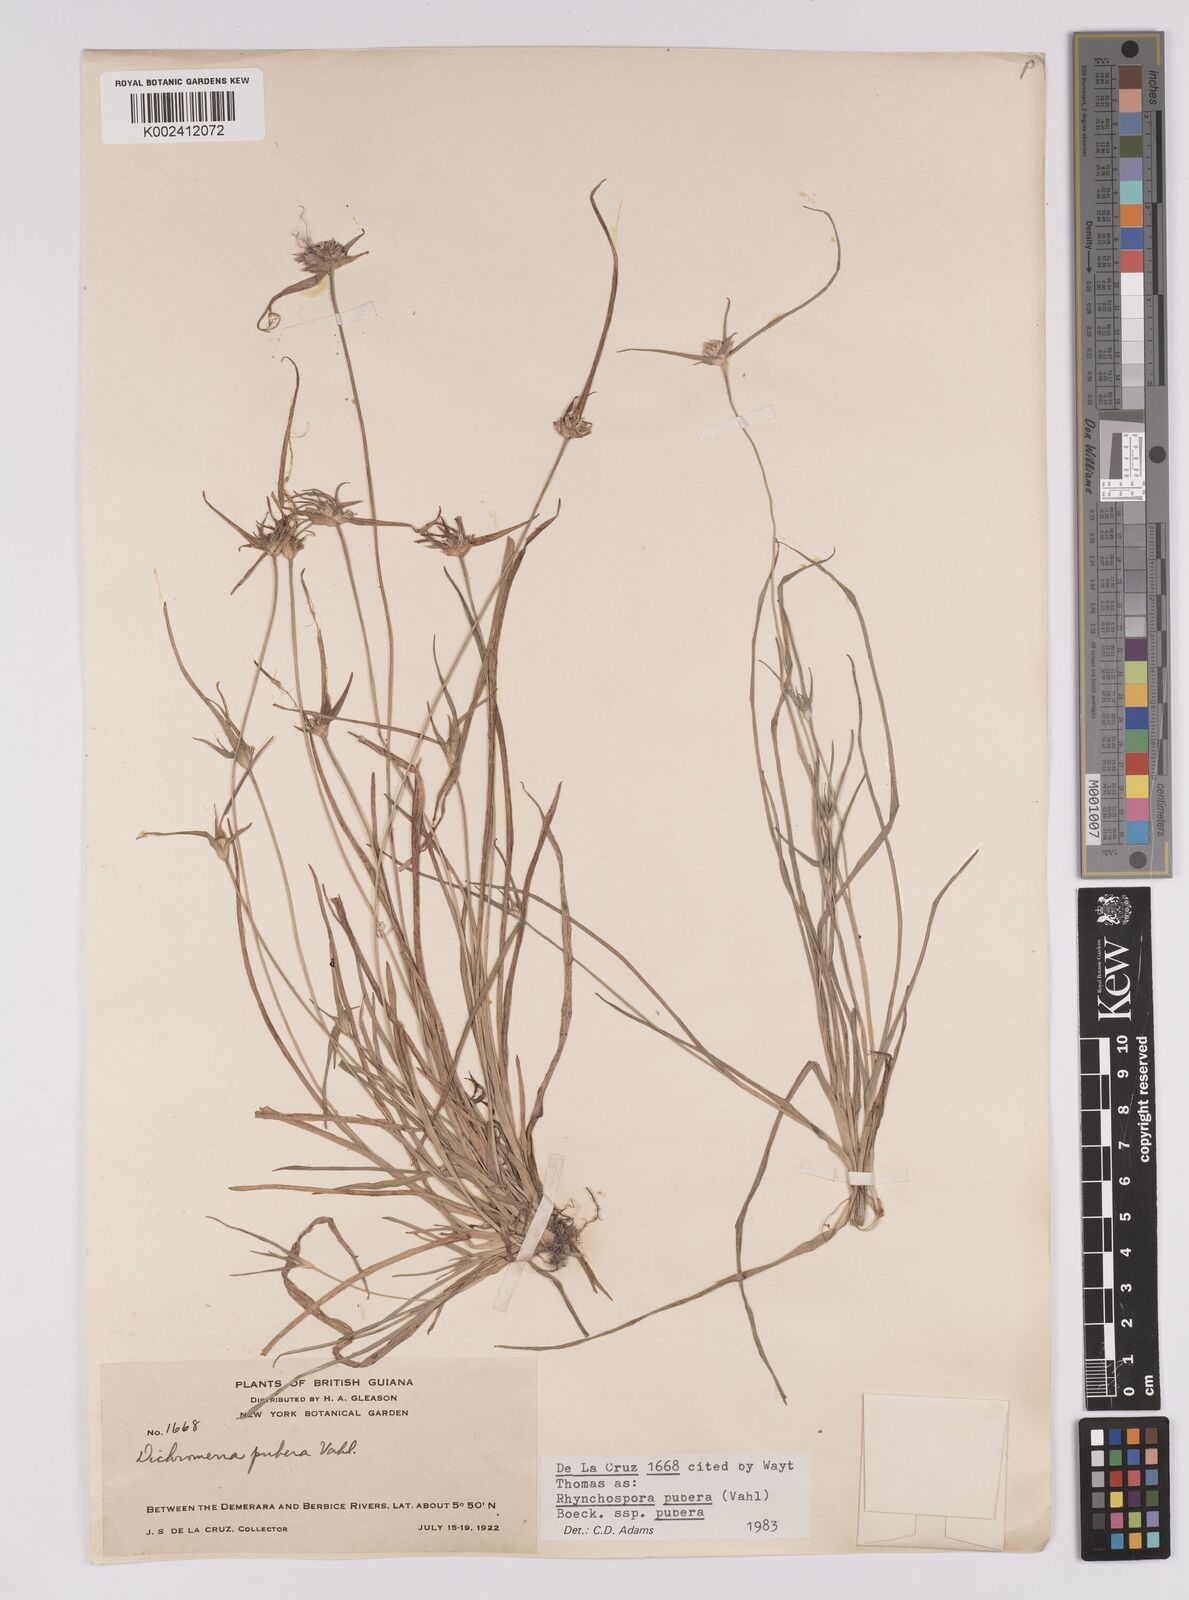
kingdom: Plantae
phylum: Tracheophyta
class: Liliopsida
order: Poales
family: Cyperaceae
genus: Rhynchospora
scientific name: Rhynchospora pubera
